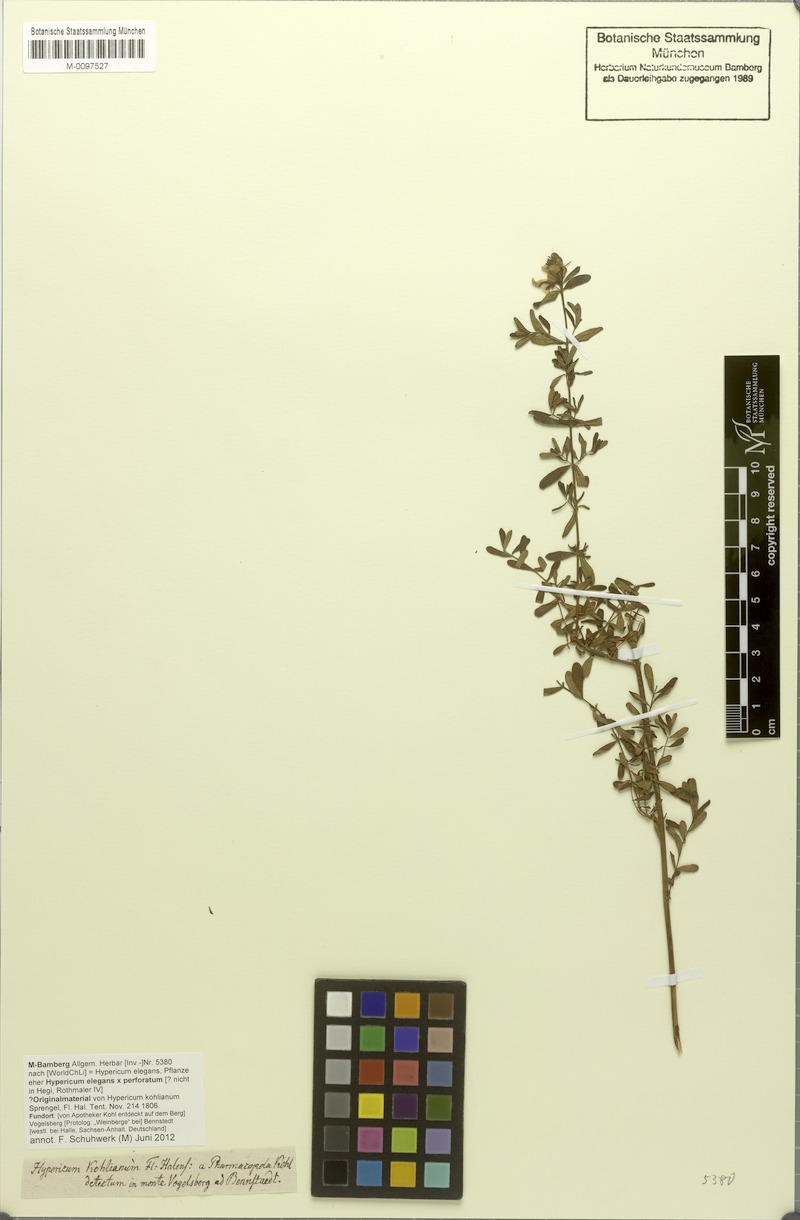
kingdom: Plantae
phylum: Tracheophyta
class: Magnoliopsida
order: Malpighiales
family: Hypericaceae
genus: Hypericum
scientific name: Hypericum elegans
